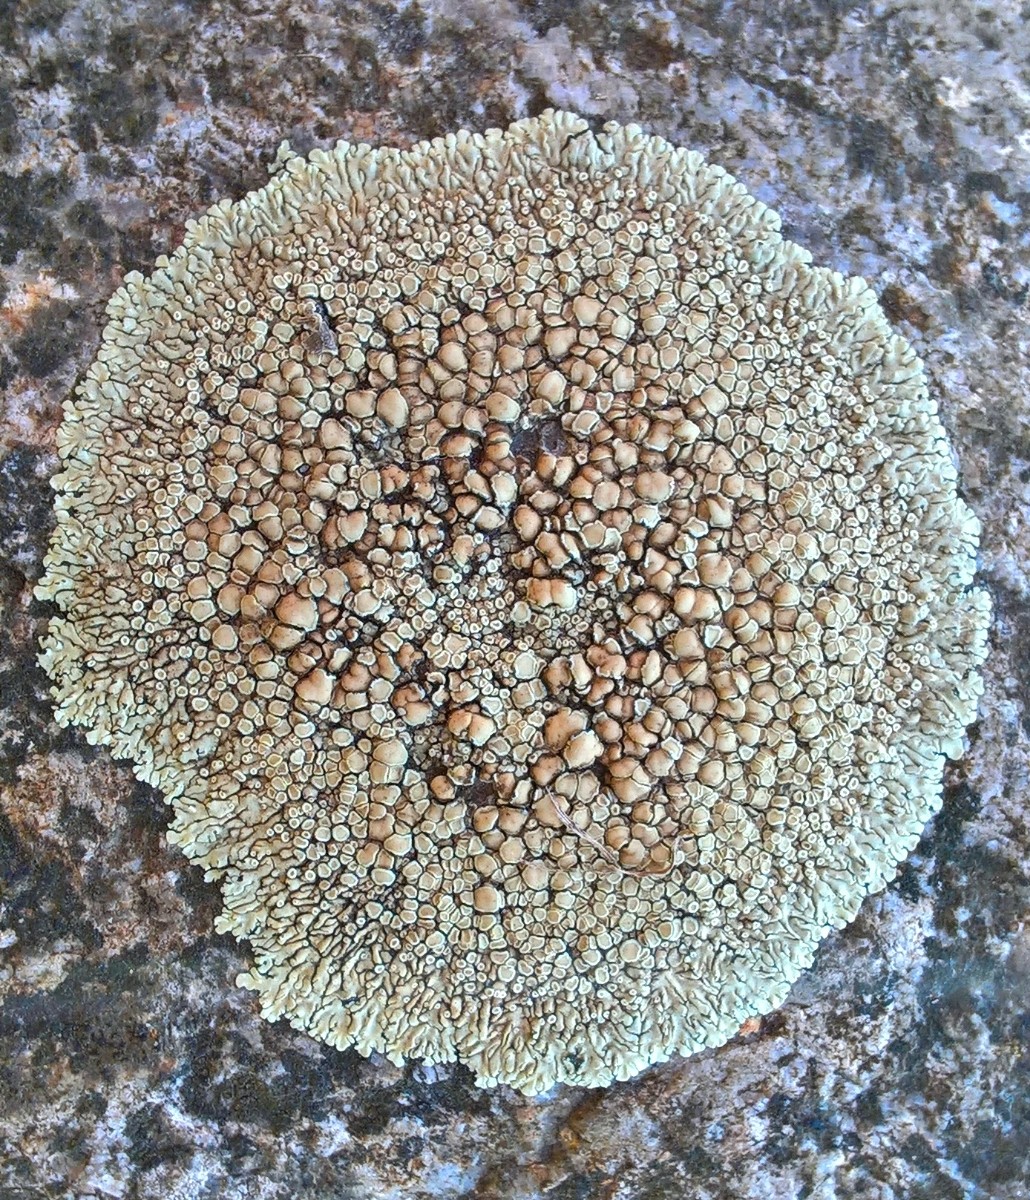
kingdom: Fungi
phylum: Ascomycota
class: Lecanoromycetes
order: Lecanorales
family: Lecanoraceae
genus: Protoparmeliopsis
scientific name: Protoparmeliopsis muralis
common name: randfliget kantskivelav
